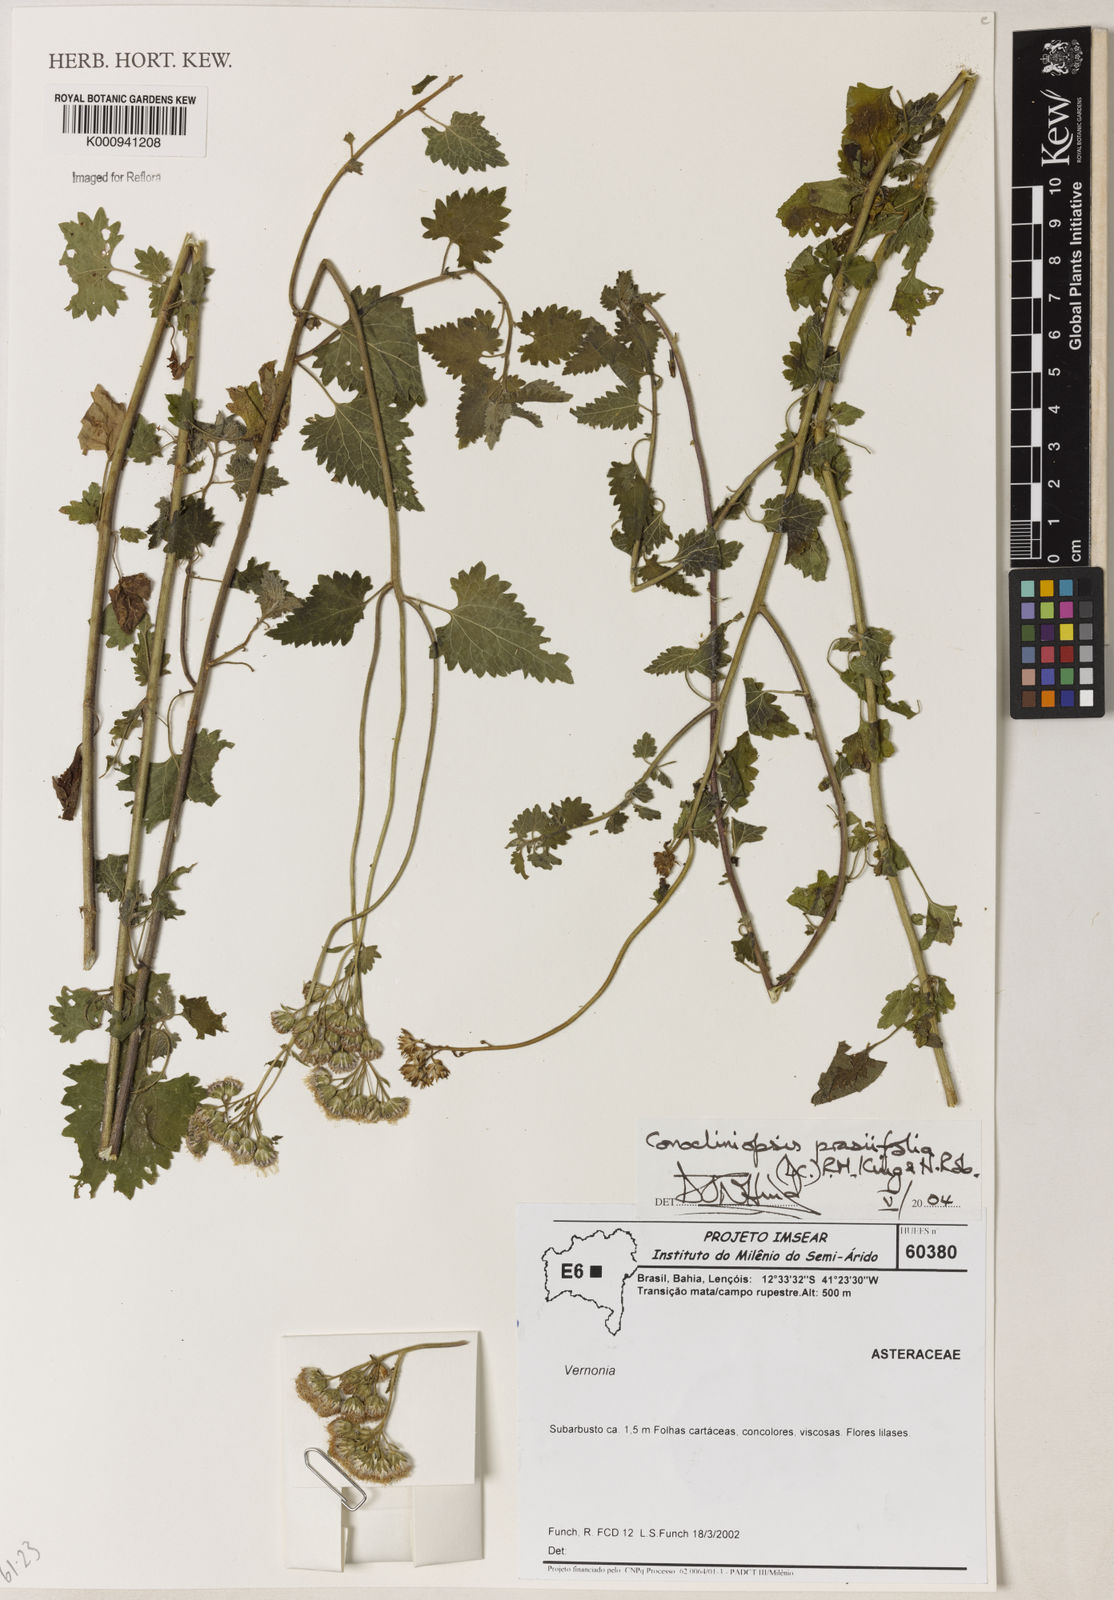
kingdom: Plantae
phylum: Tracheophyta
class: Magnoliopsida
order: Asterales
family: Asteraceae
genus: Conocliniopsis
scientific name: Conocliniopsis grossedentata
